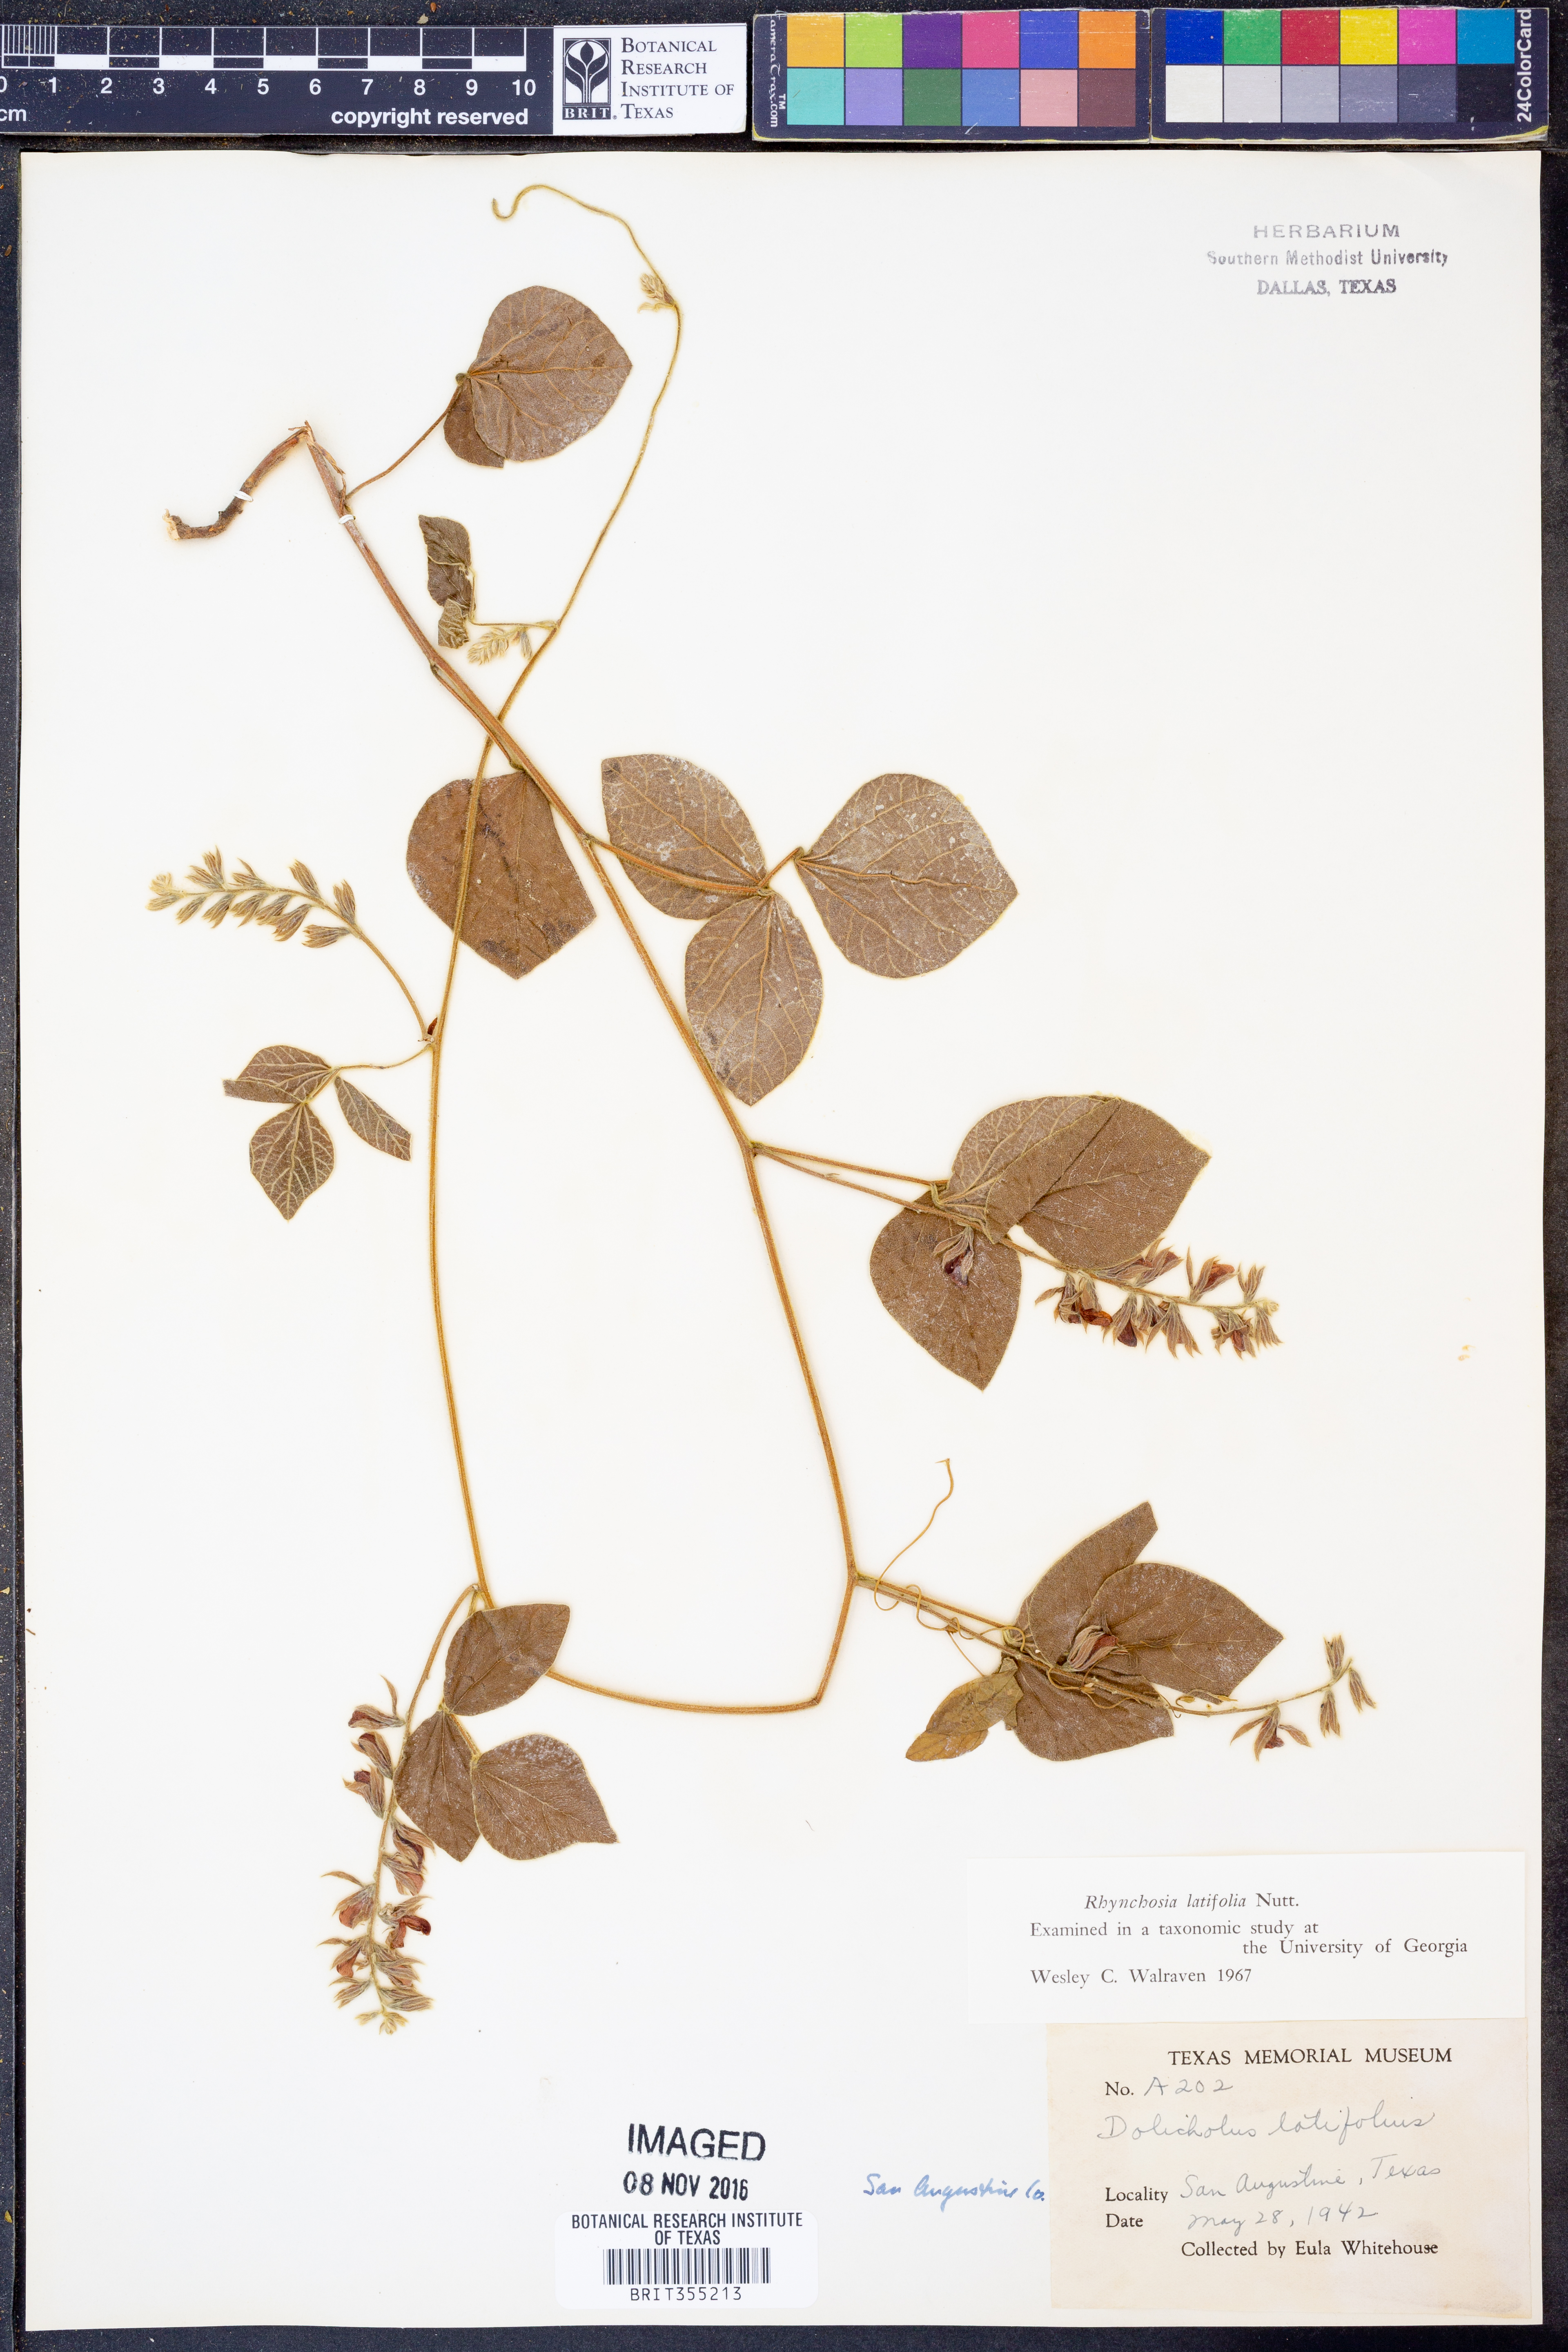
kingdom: Plantae
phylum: Tracheophyta
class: Magnoliopsida
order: Fabales
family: Fabaceae
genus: Rhynchosia
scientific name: Rhynchosia latifolia
